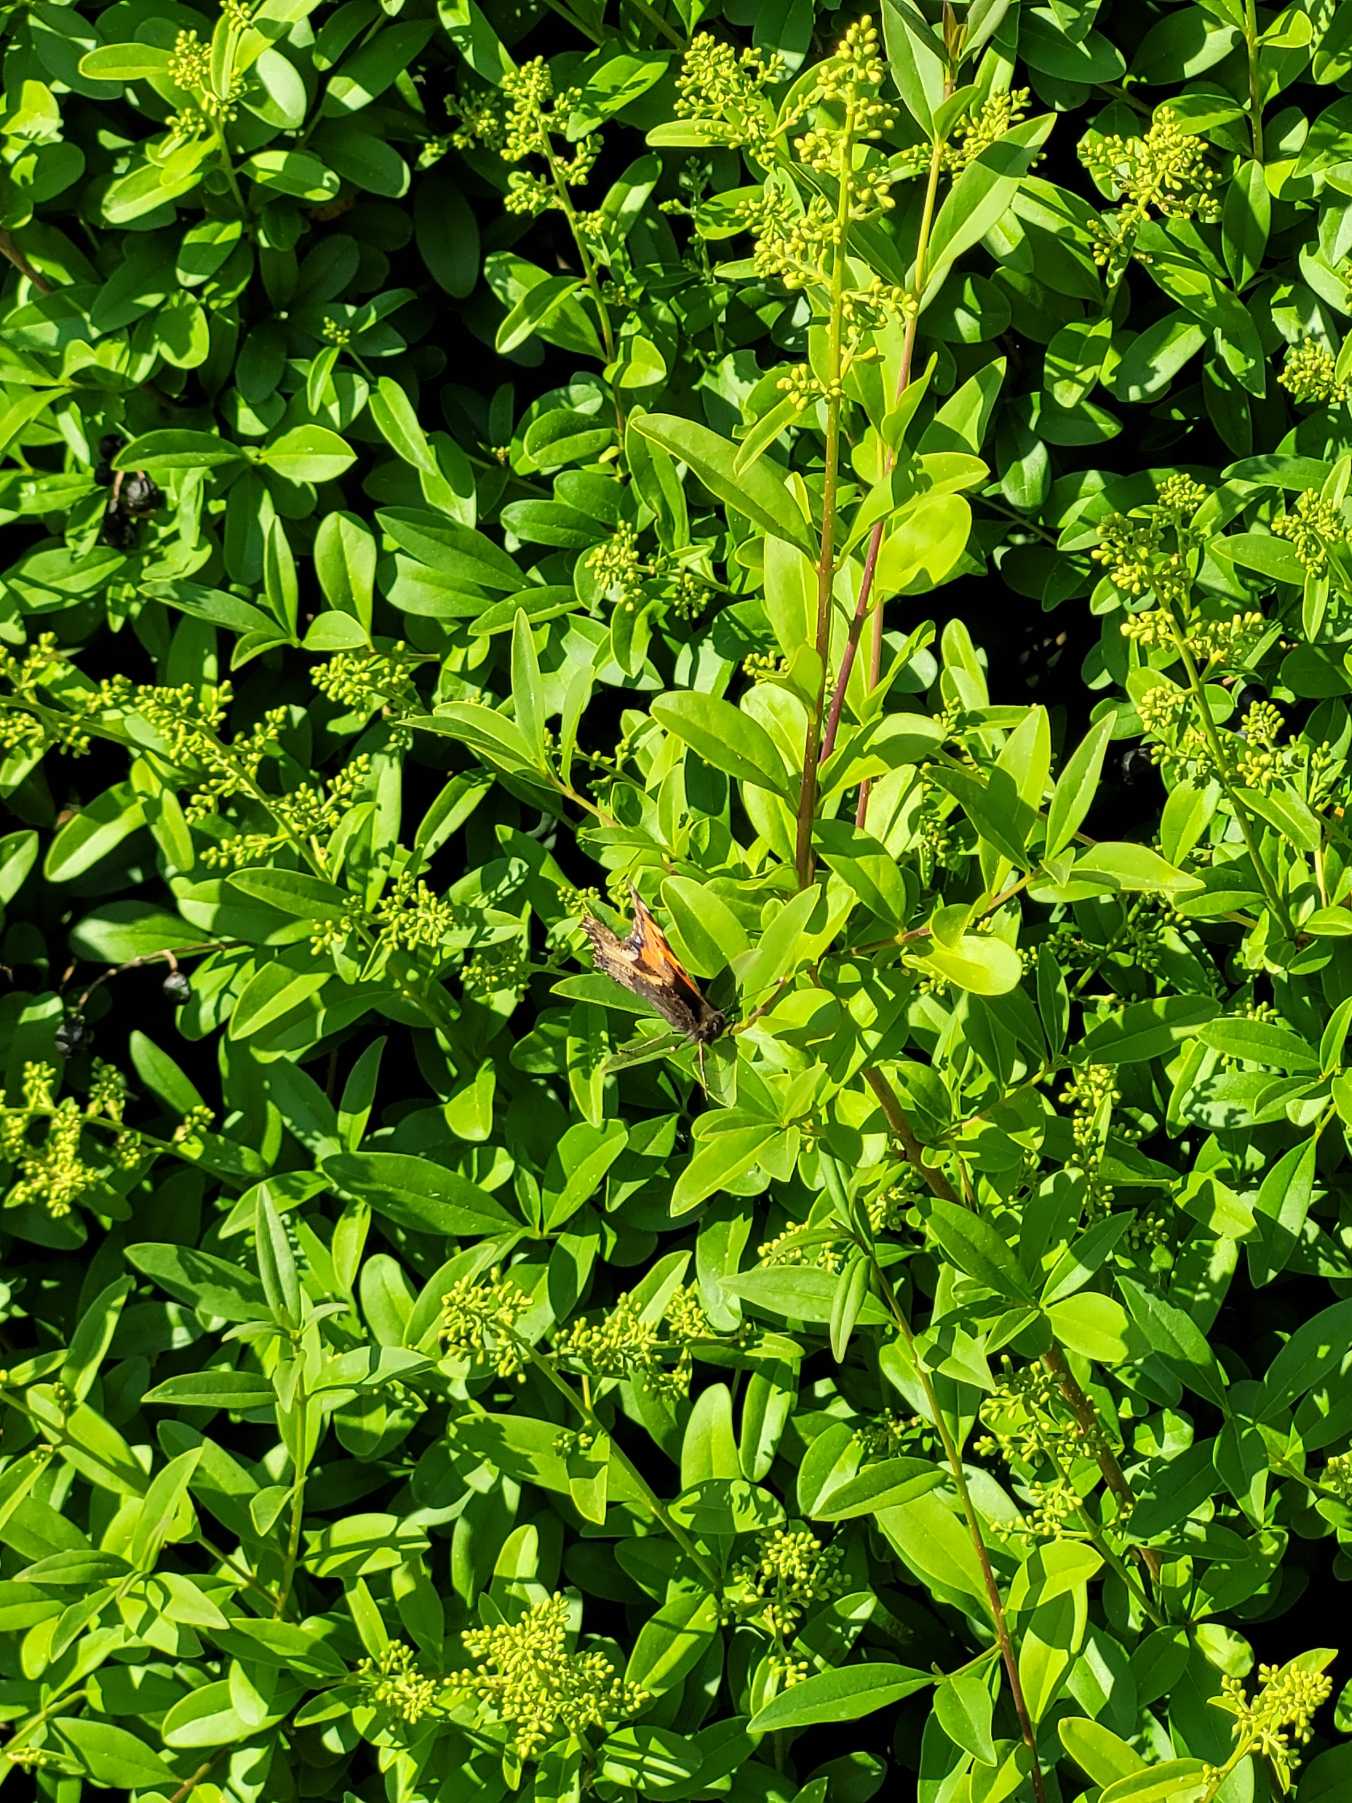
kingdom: Animalia
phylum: Arthropoda
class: Insecta
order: Lepidoptera
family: Nymphalidae
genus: Aglais
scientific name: Aglais urticae
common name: Nældens takvinge
